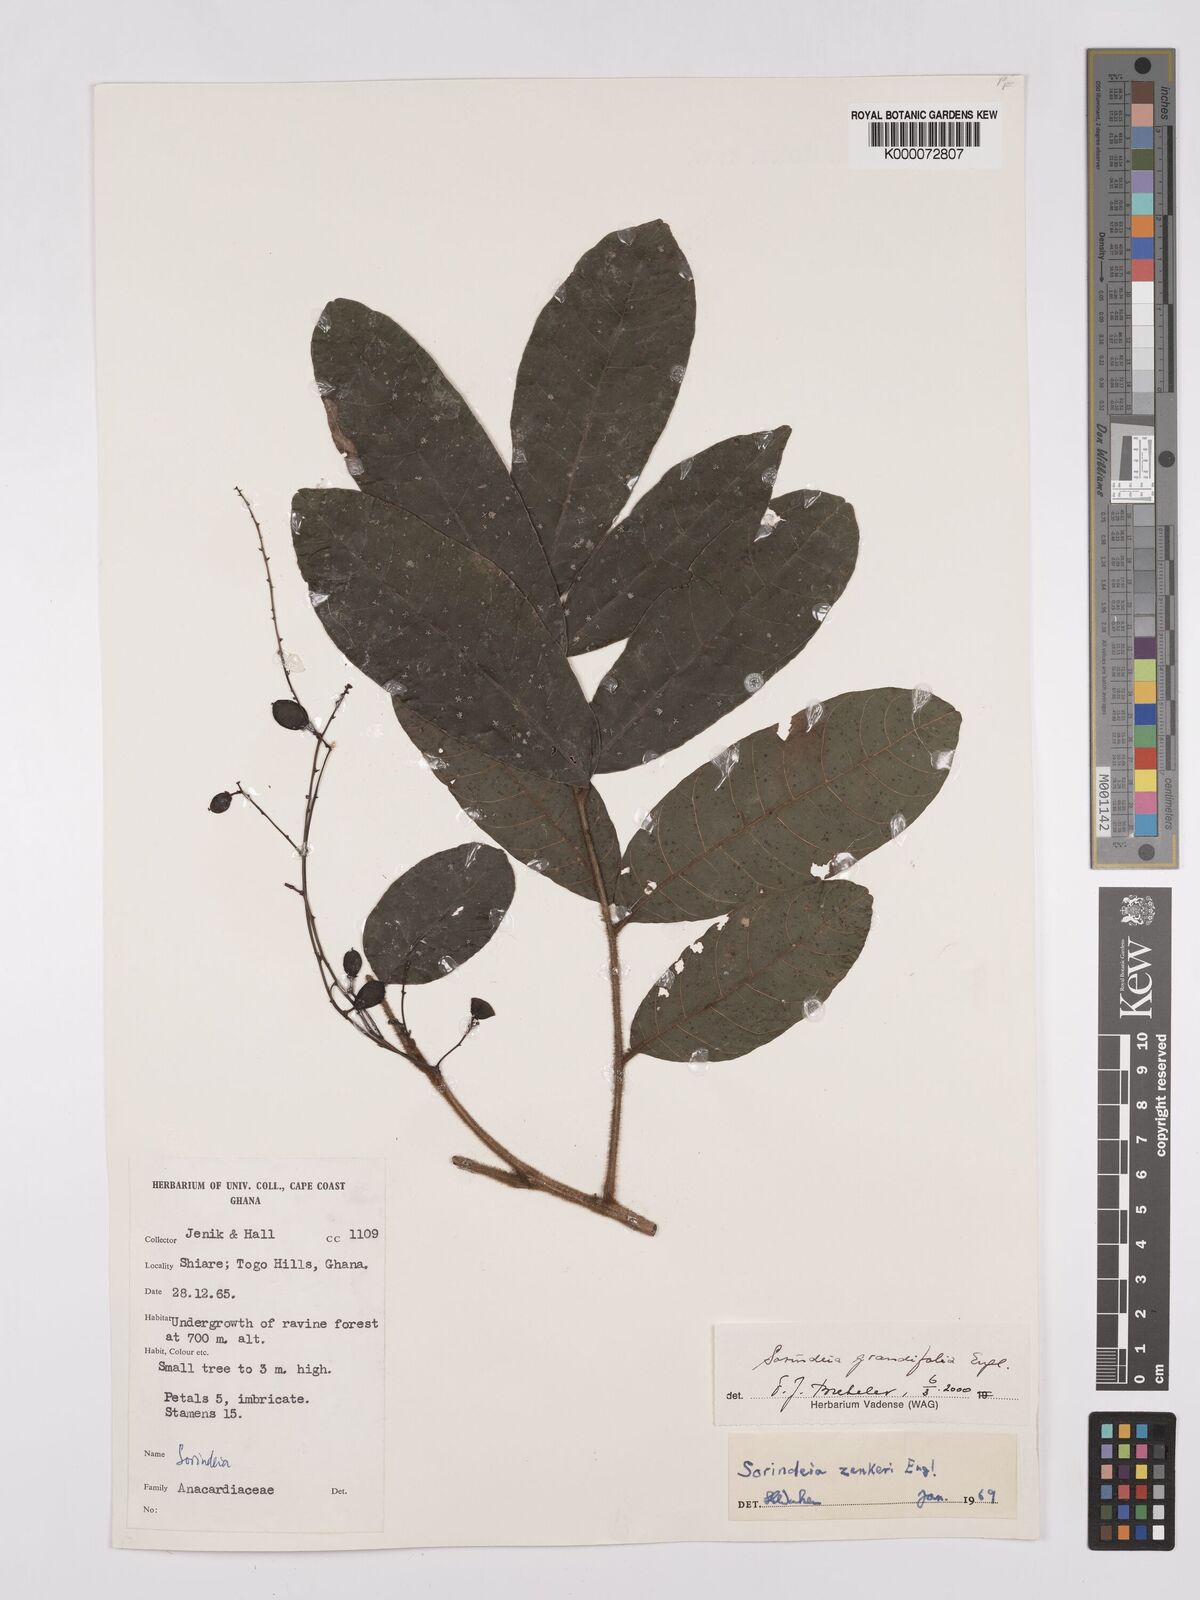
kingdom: Plantae
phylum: Tracheophyta
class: Magnoliopsida
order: Sapindales
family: Anacardiaceae
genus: Sorindeia
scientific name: Sorindeia grandifolia
